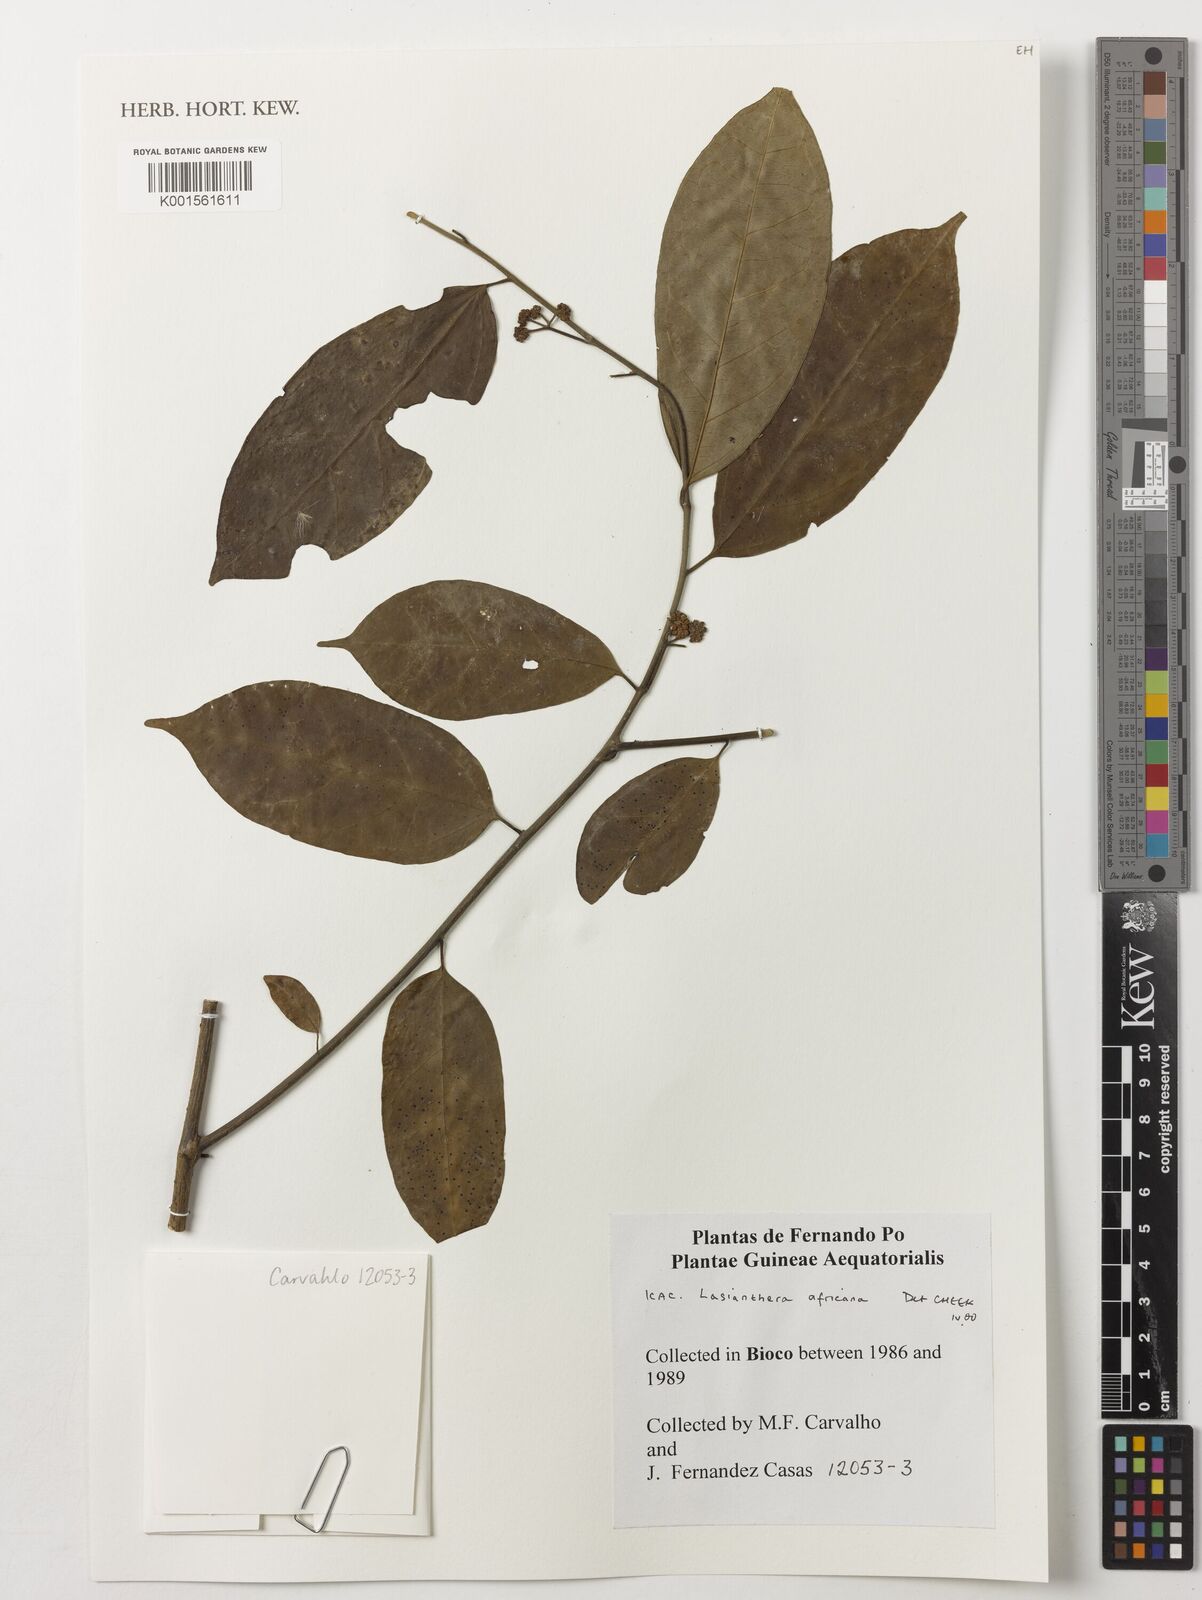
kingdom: Plantae
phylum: Tracheophyta
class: Magnoliopsida
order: Cardiopteridales
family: Stemonuraceae
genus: Lasianthera
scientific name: Lasianthera africana
